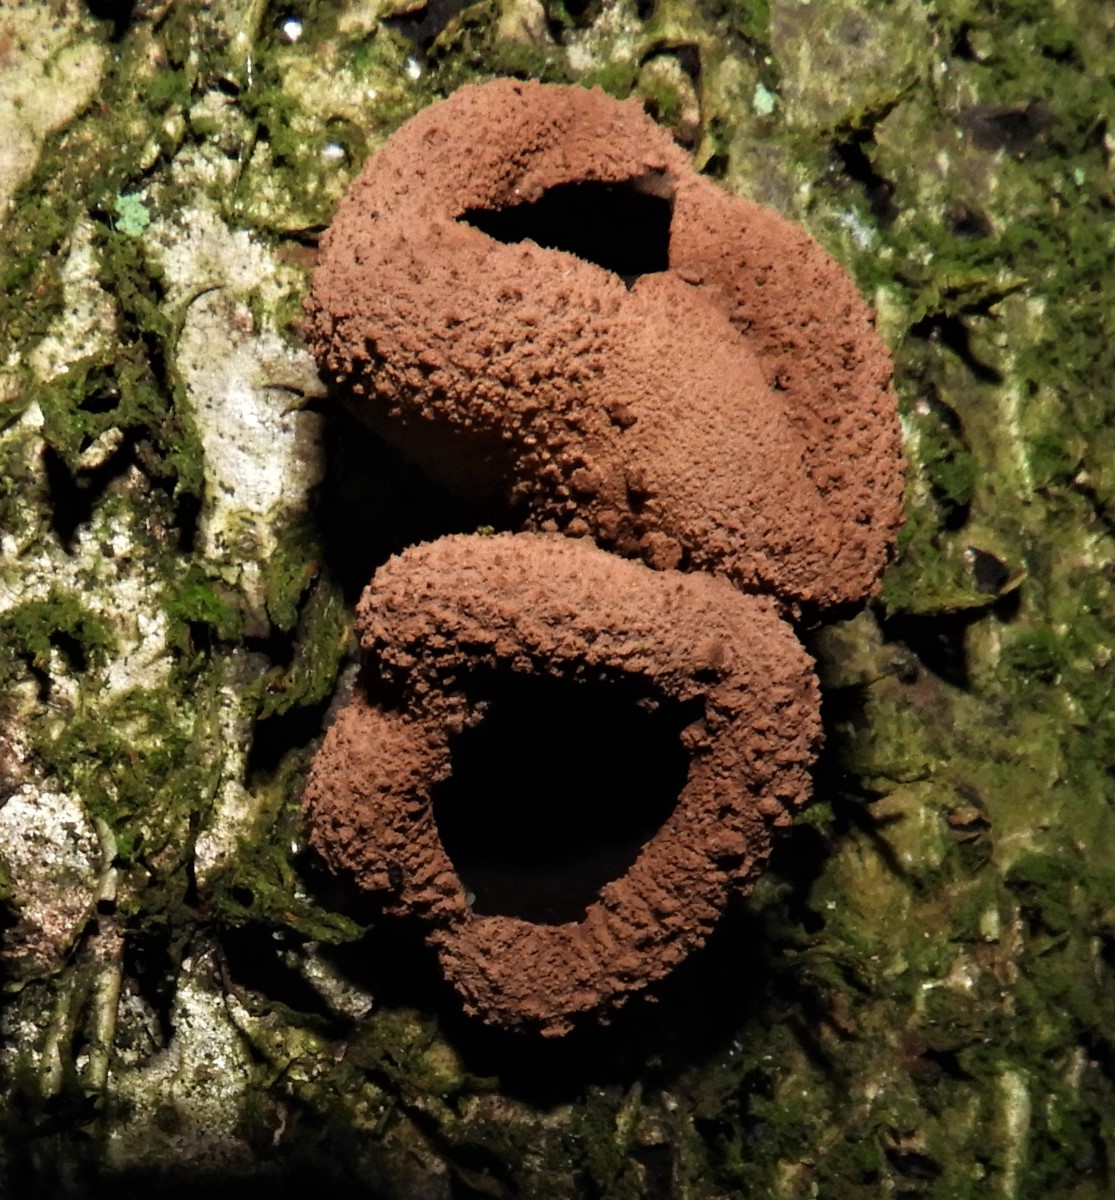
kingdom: Fungi
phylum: Ascomycota
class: Leotiomycetes
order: Helotiales
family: Cenangiaceae
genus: Encoelia
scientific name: Encoelia furfuracea
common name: hassel-læderskive
